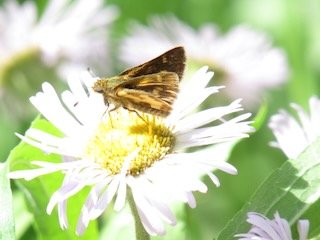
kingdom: Animalia
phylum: Arthropoda
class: Insecta
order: Lepidoptera
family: Hesperiidae
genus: Polites
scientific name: Polites coras
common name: Peck's Skipper
